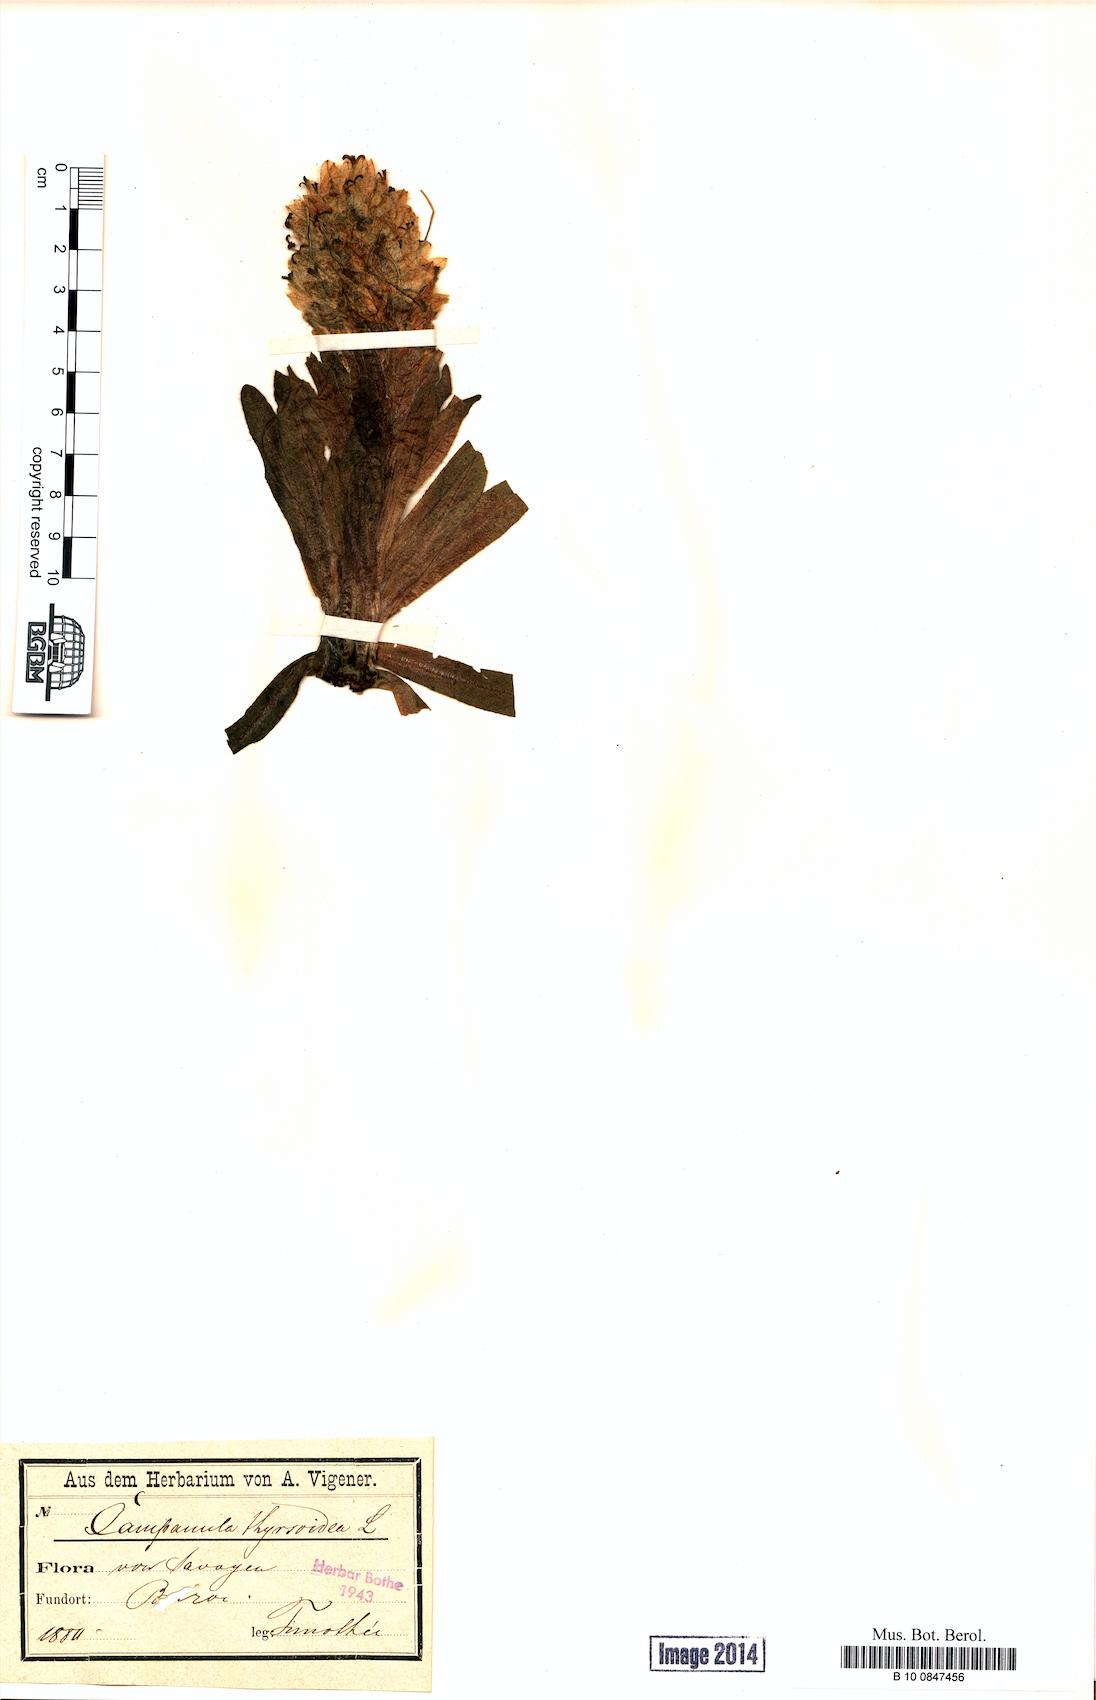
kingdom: Plantae
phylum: Tracheophyta
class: Magnoliopsida
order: Asterales
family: Campanulaceae
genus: Campanula
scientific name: Campanula thyrsoides
